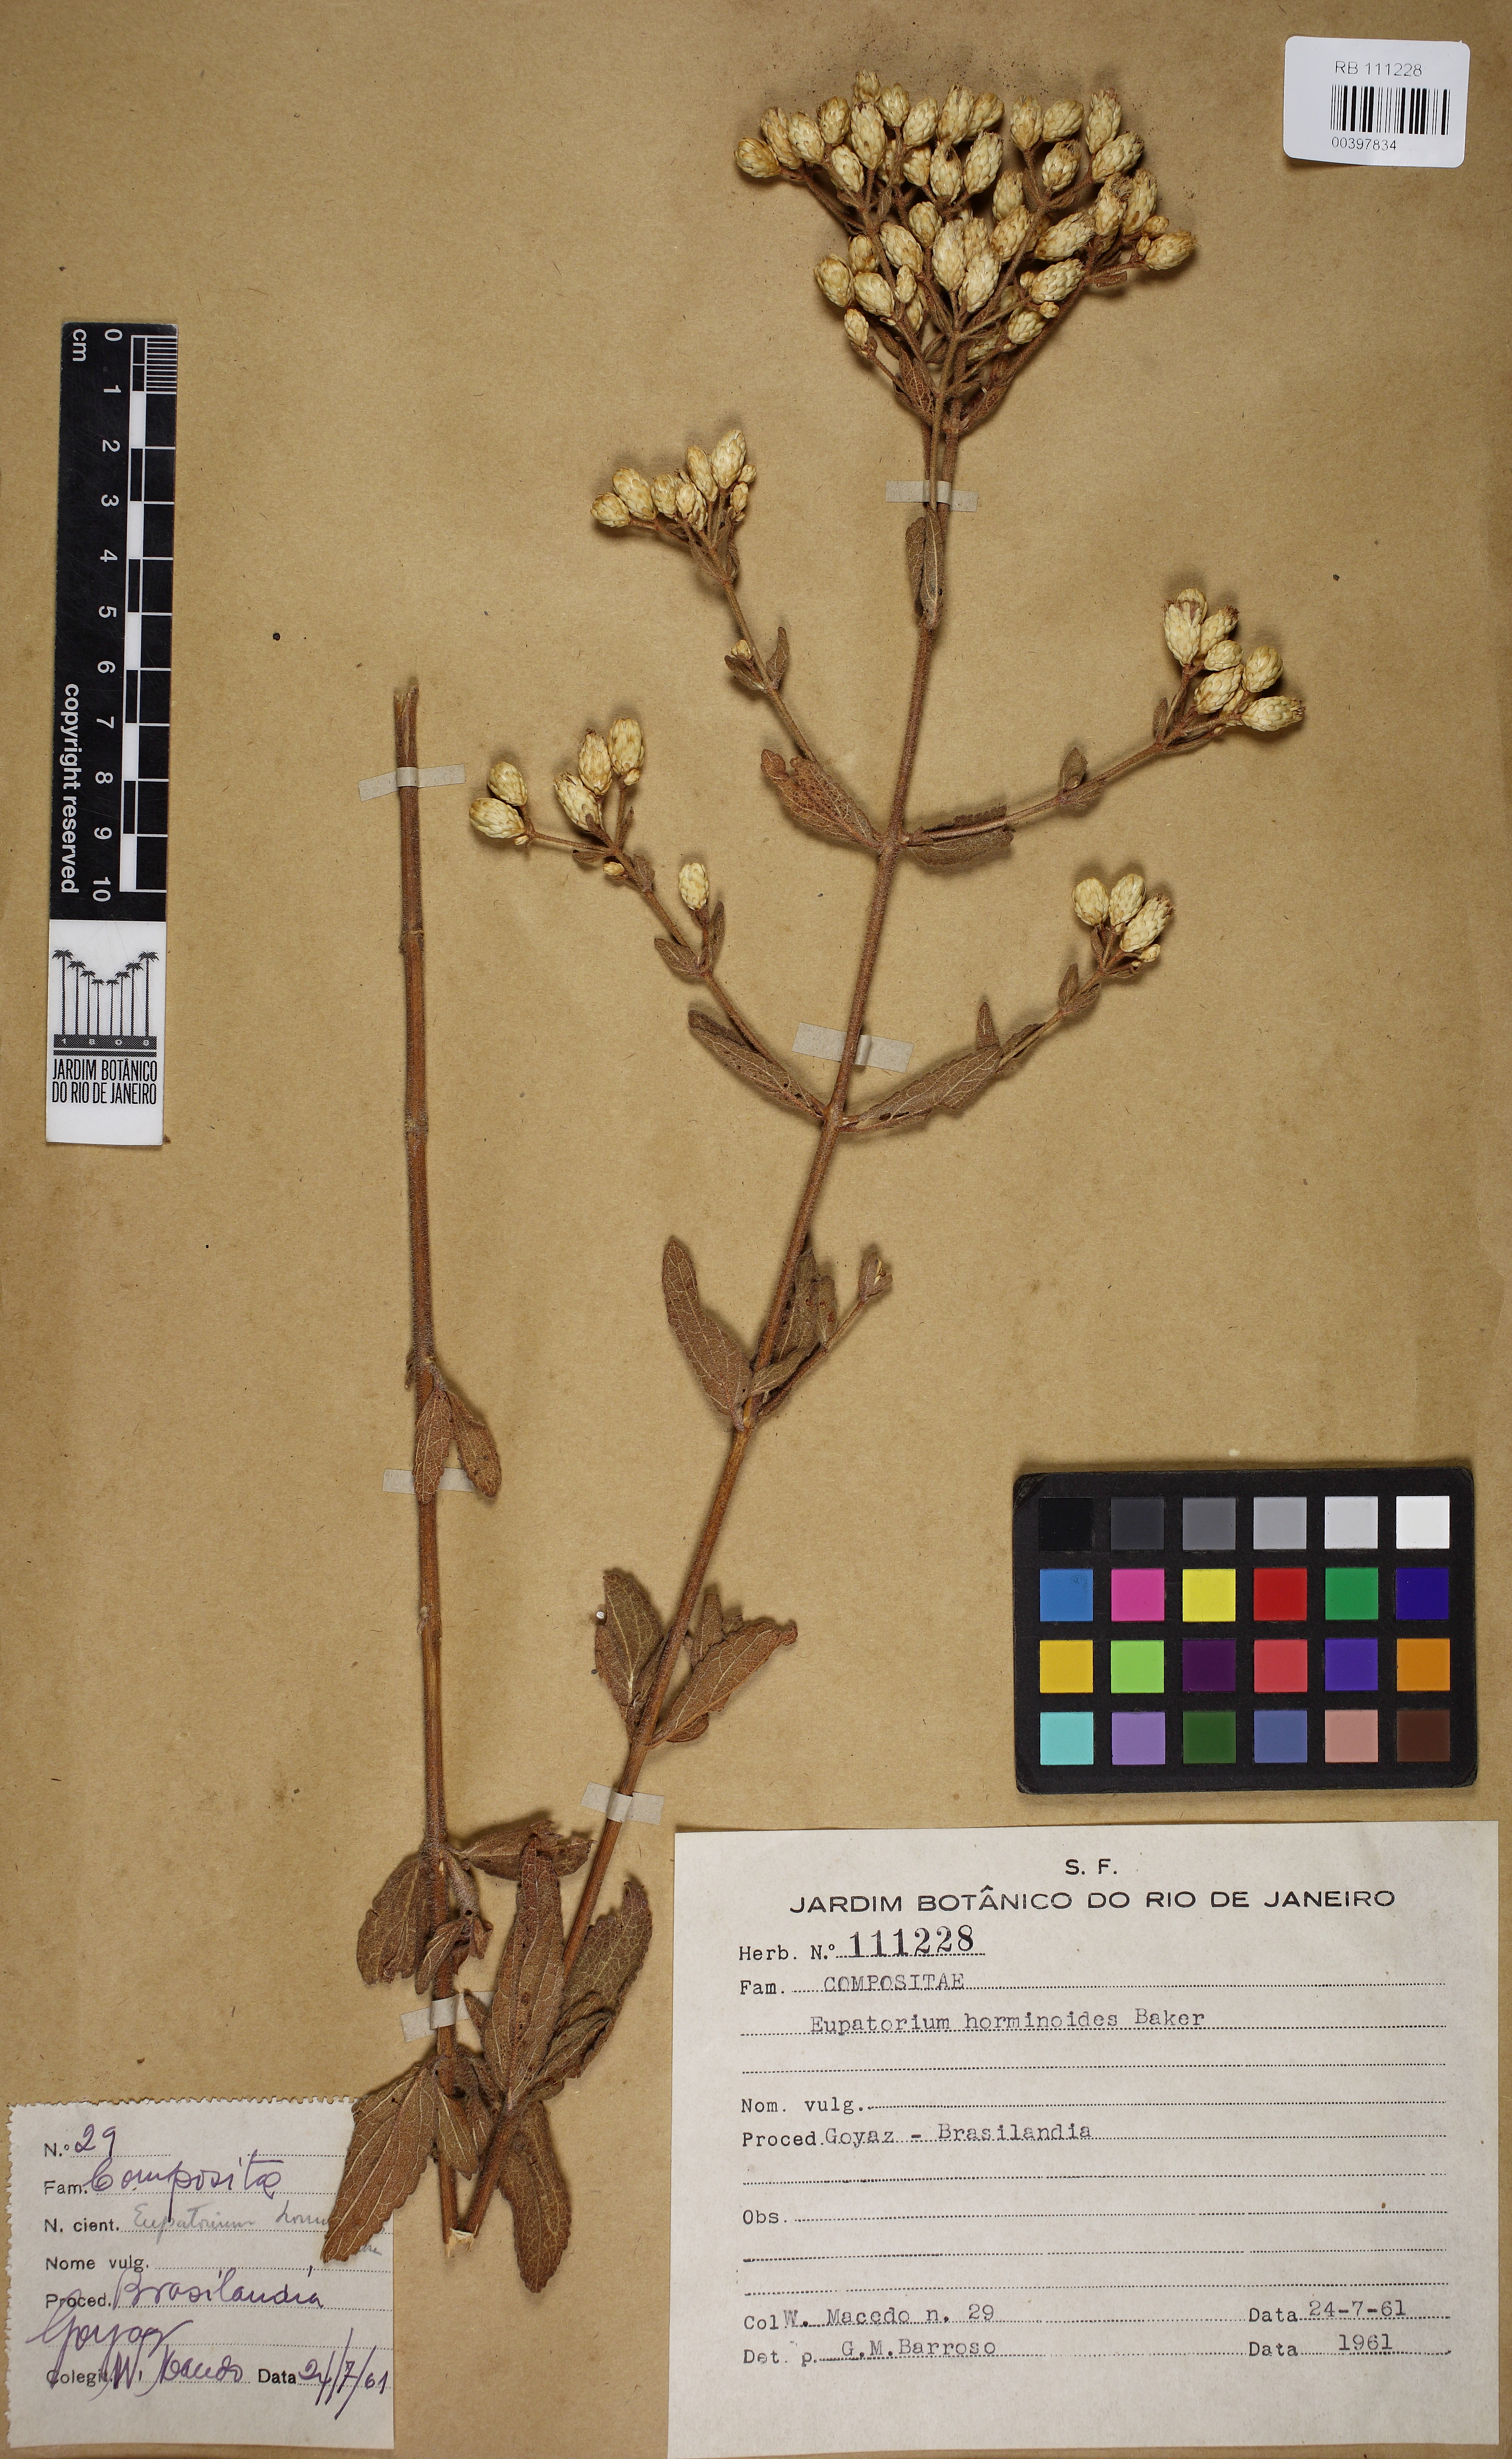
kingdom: Plantae
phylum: Tracheophyta
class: Magnoliopsida
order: Asterales
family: Asteraceae
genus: Chromolaena
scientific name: Chromolaena horminoides
